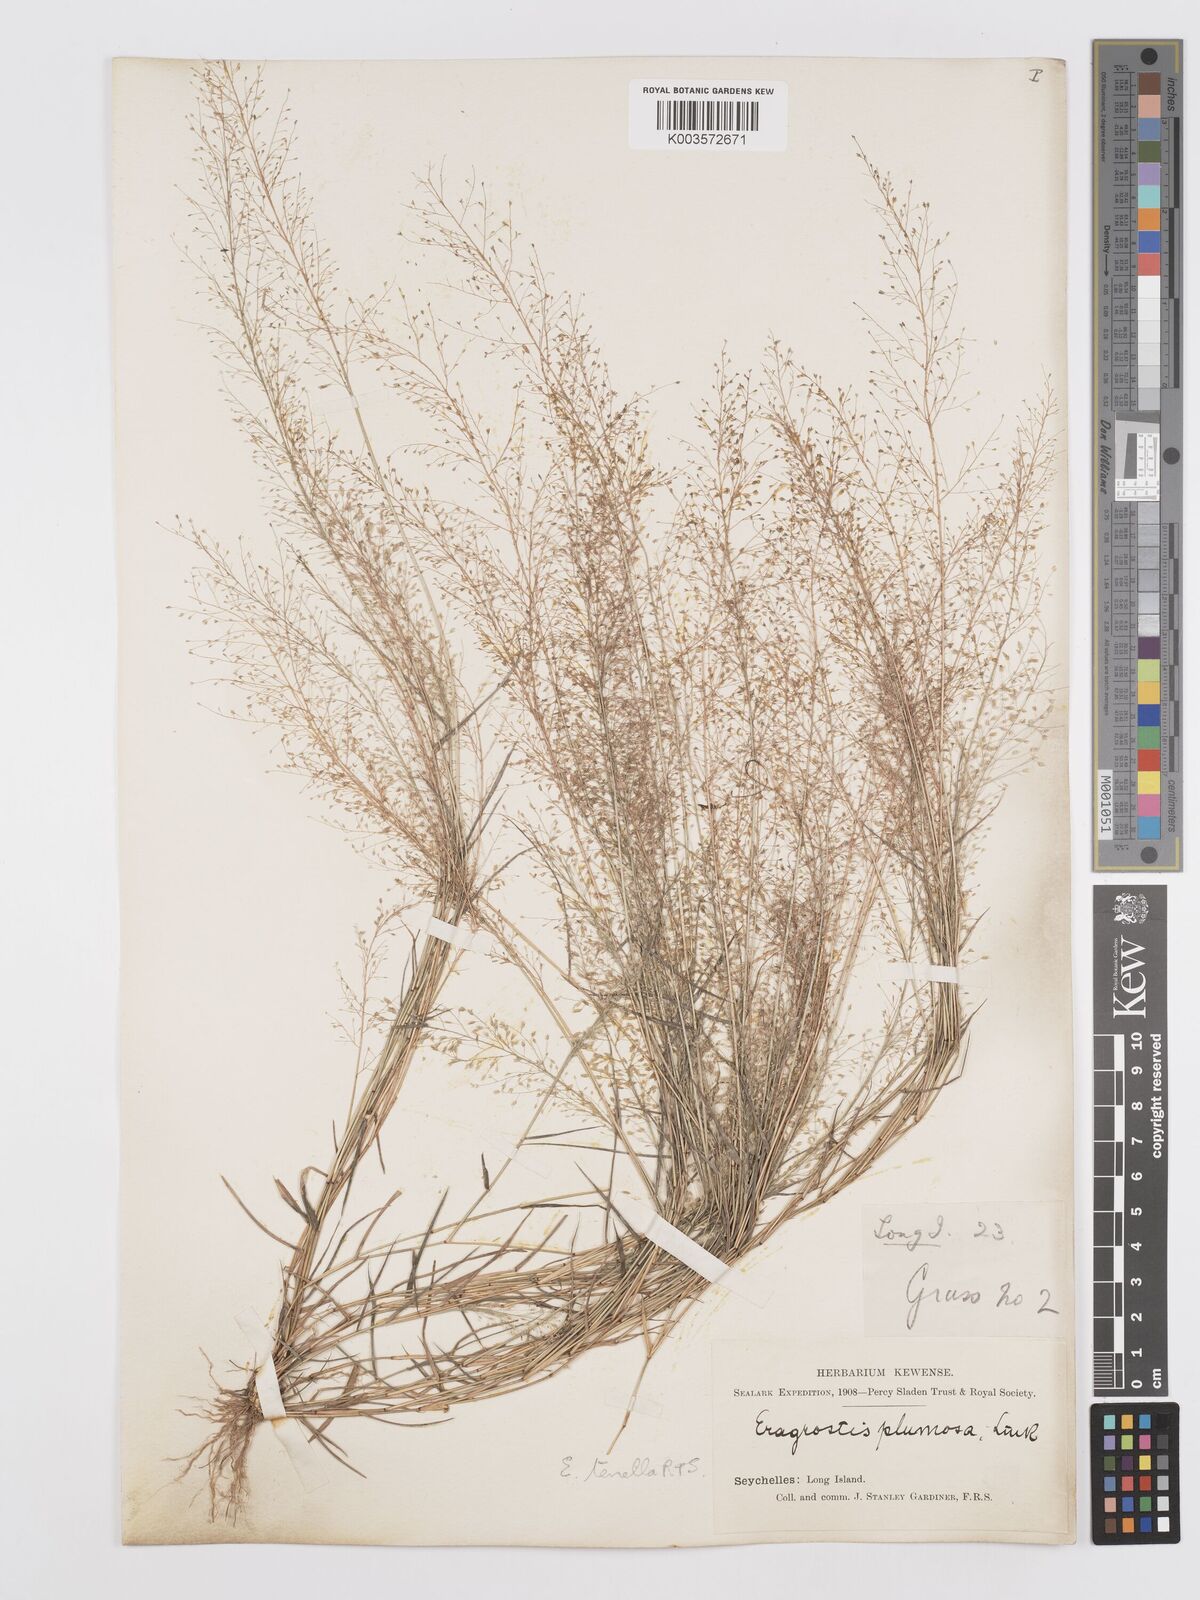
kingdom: Plantae
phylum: Tracheophyta
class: Liliopsida
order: Poales
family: Poaceae
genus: Eragrostis
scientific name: Eragrostis tenella
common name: Japanese lovegrass
